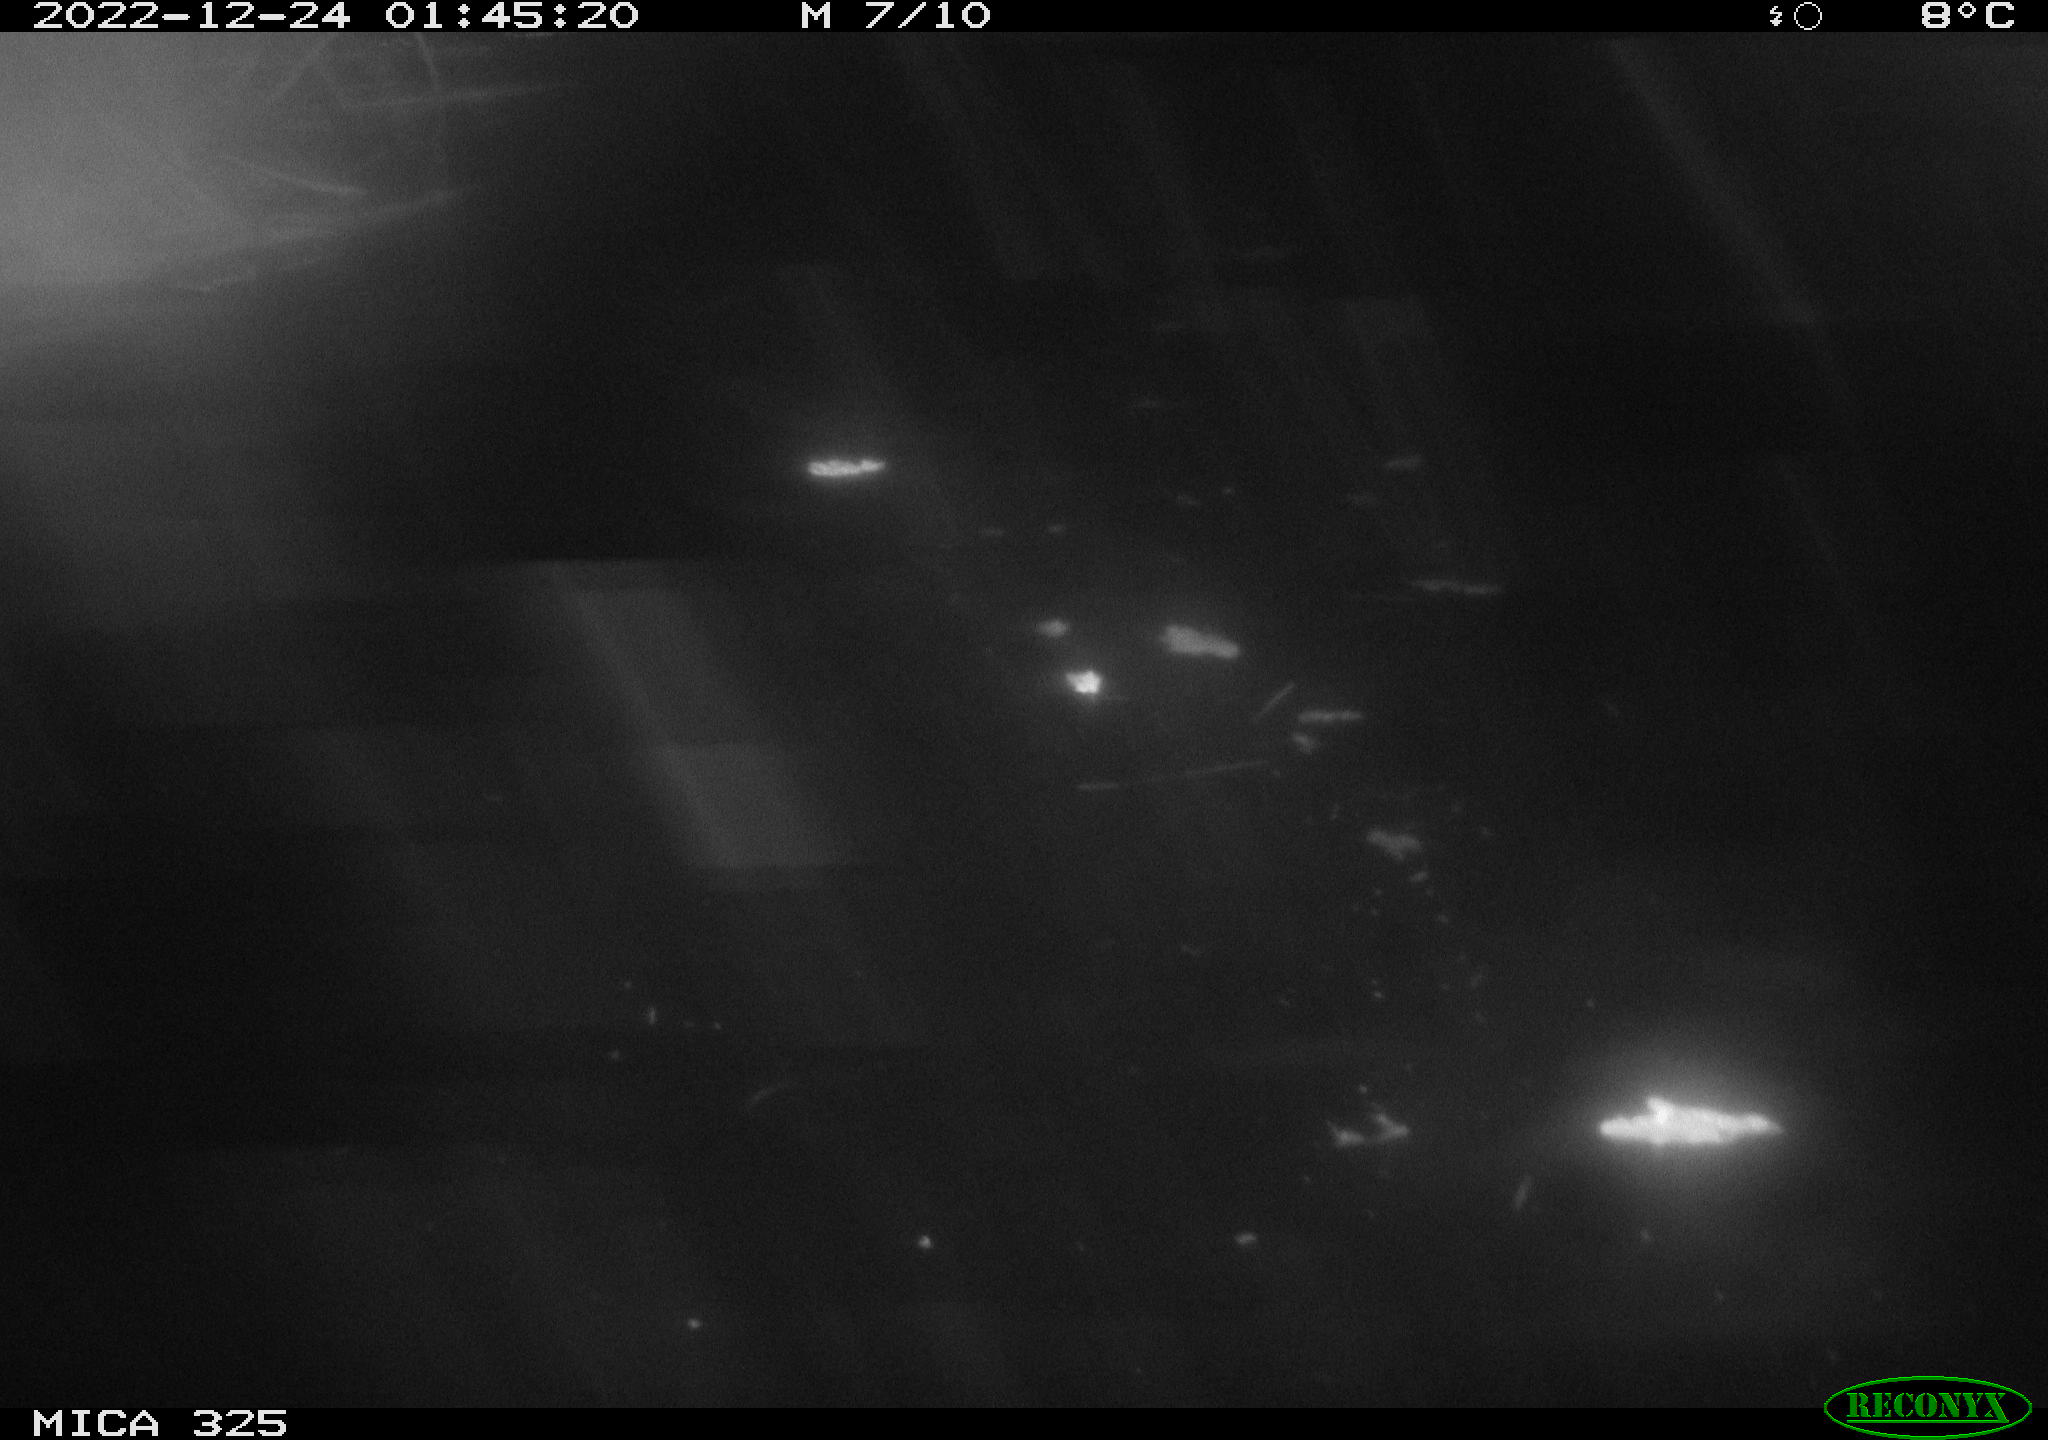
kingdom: Animalia
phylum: Chordata
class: Mammalia
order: Rodentia
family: Cricetidae
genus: Ondatra
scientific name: Ondatra zibethicus
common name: Muskrat
